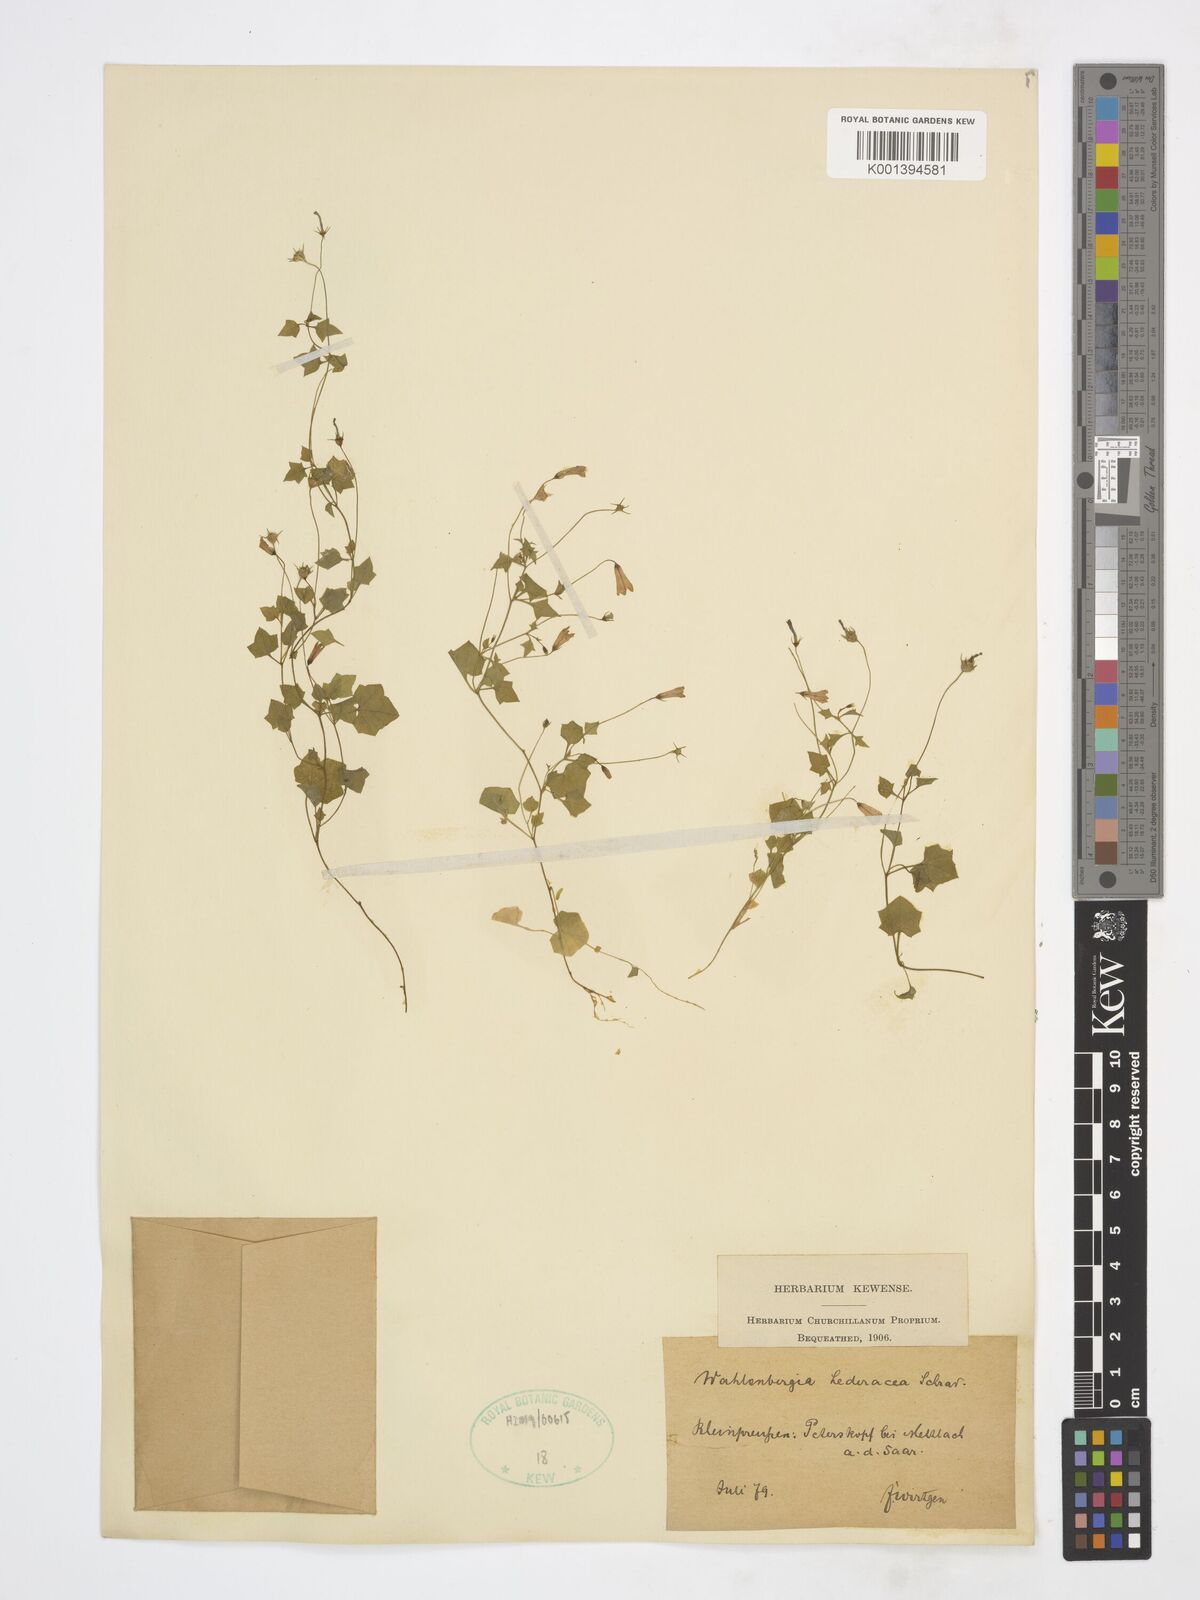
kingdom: Plantae
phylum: Tracheophyta
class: Magnoliopsida
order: Asterales
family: Campanulaceae
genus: Wahlenbergia
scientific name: Wahlenbergia
